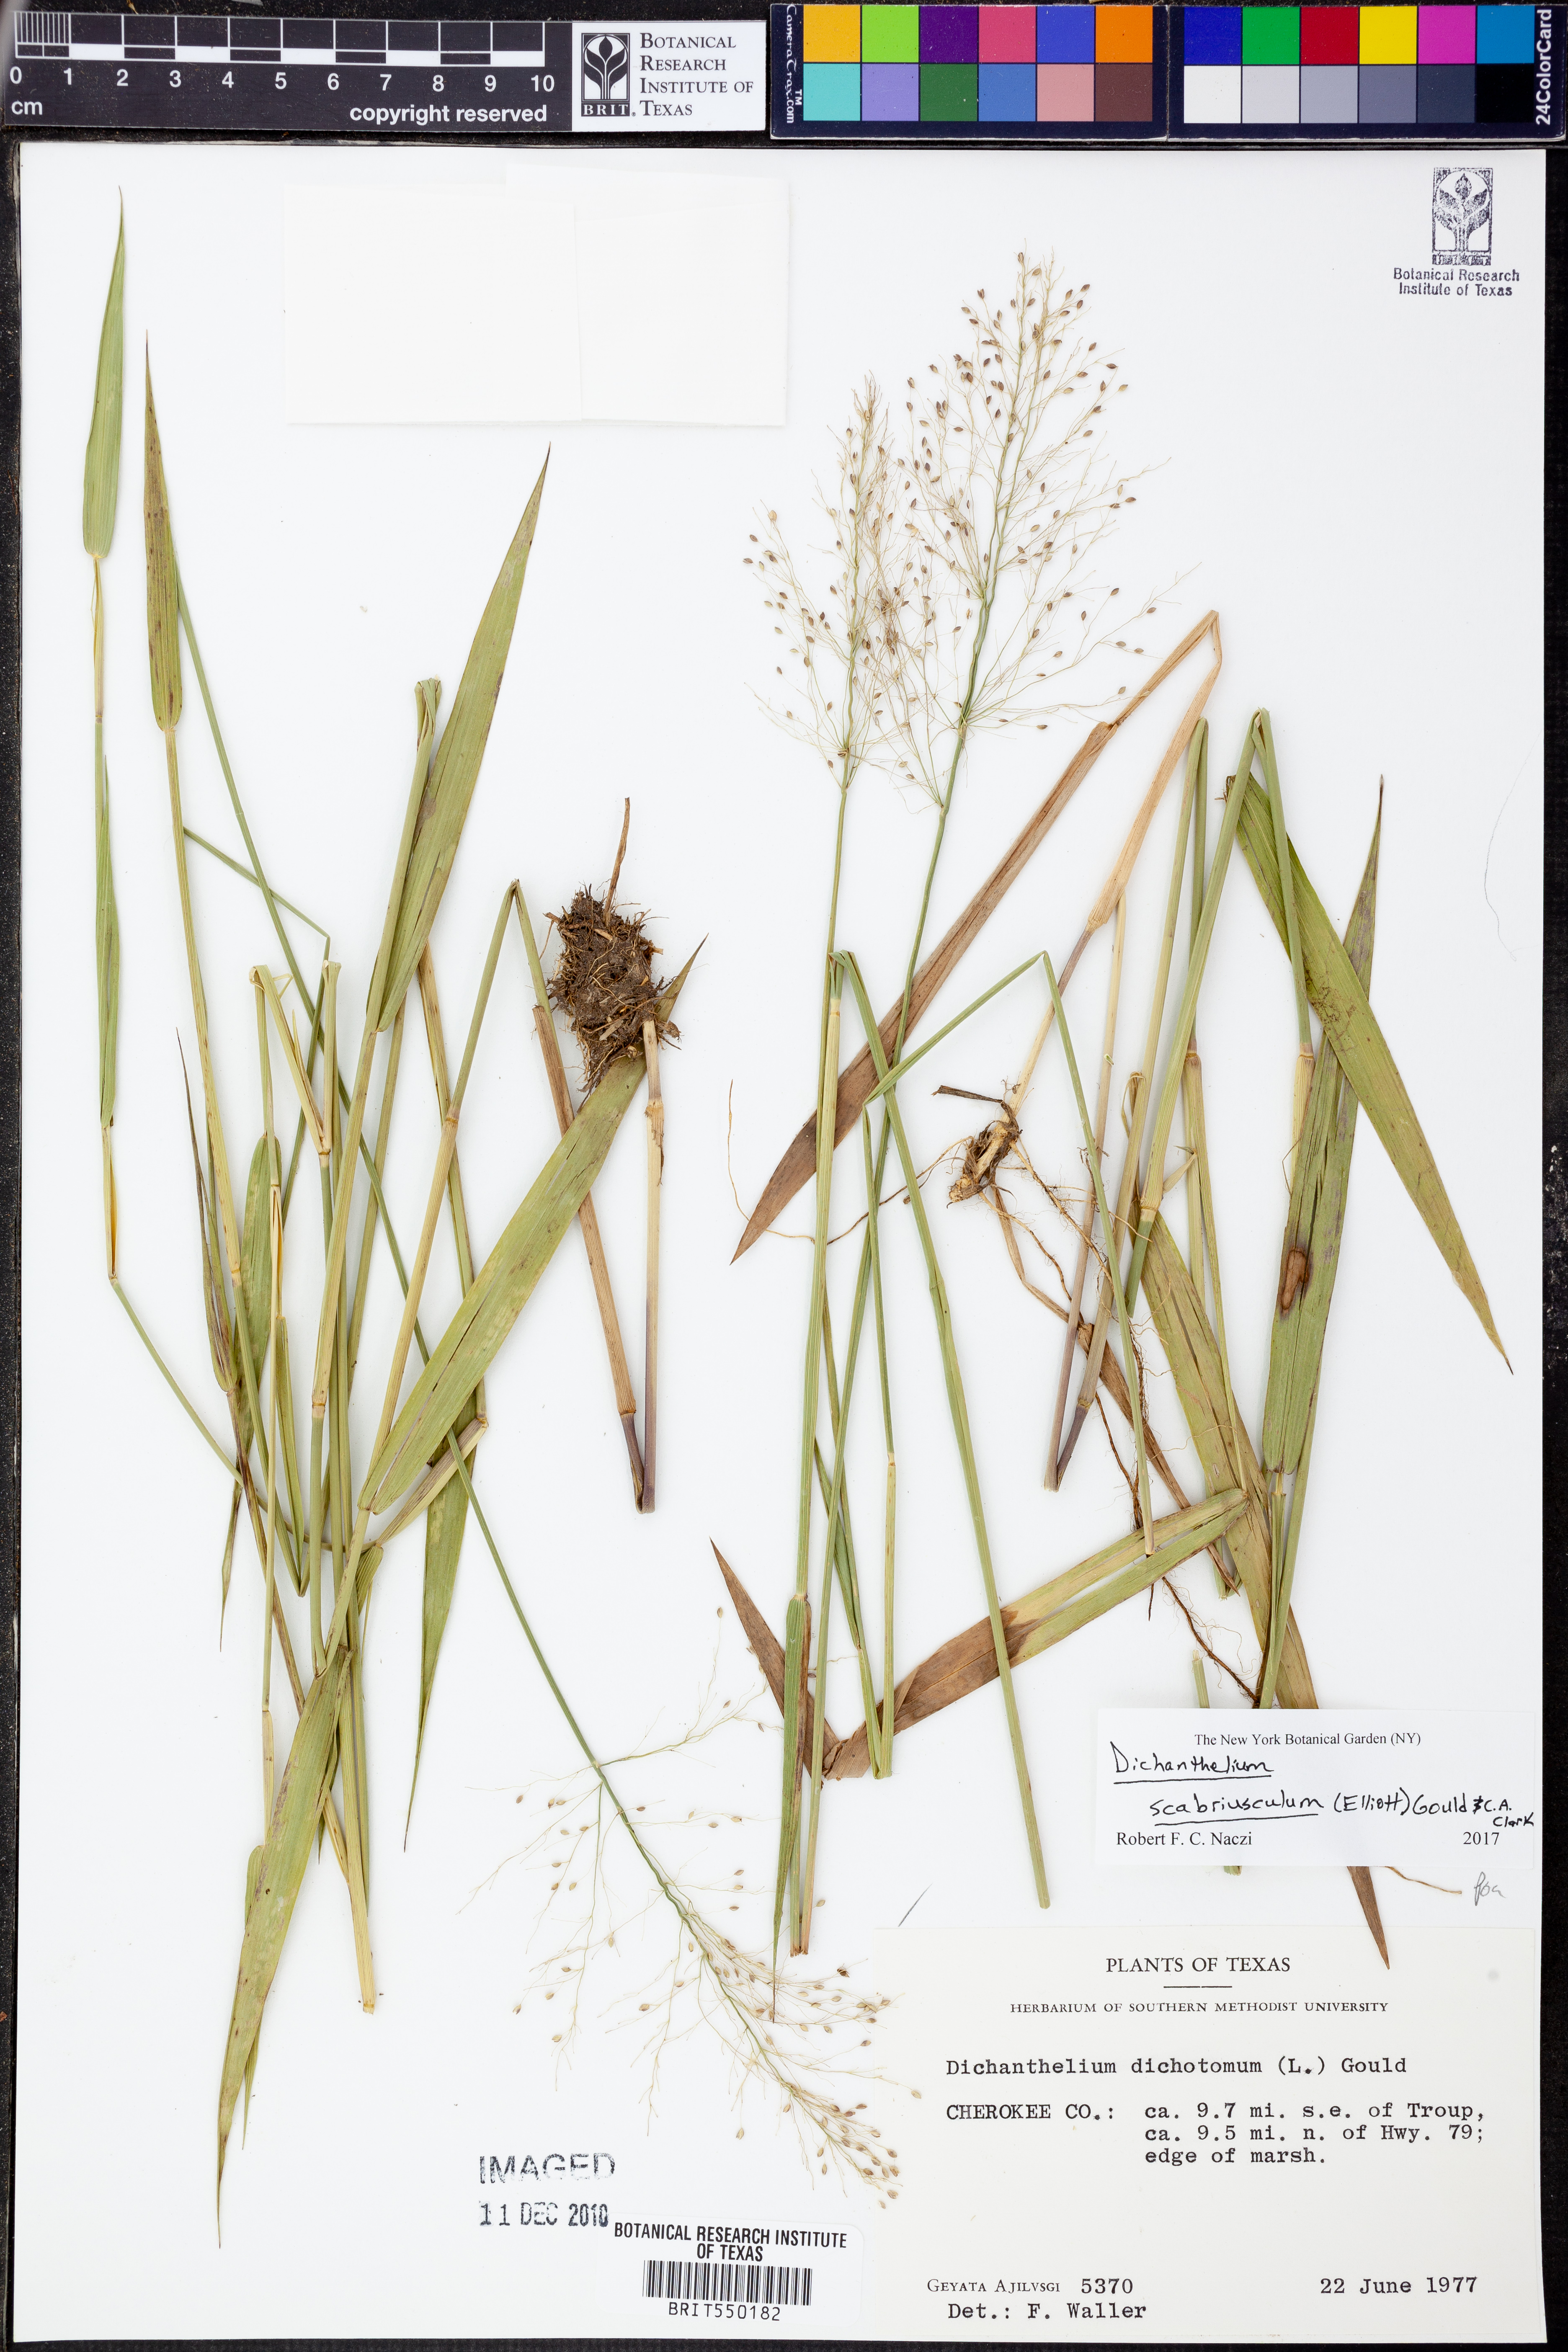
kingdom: Plantae
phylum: Tracheophyta
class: Liliopsida
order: Poales
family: Poaceae
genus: Dichanthelium
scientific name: Dichanthelium scabriusculum
